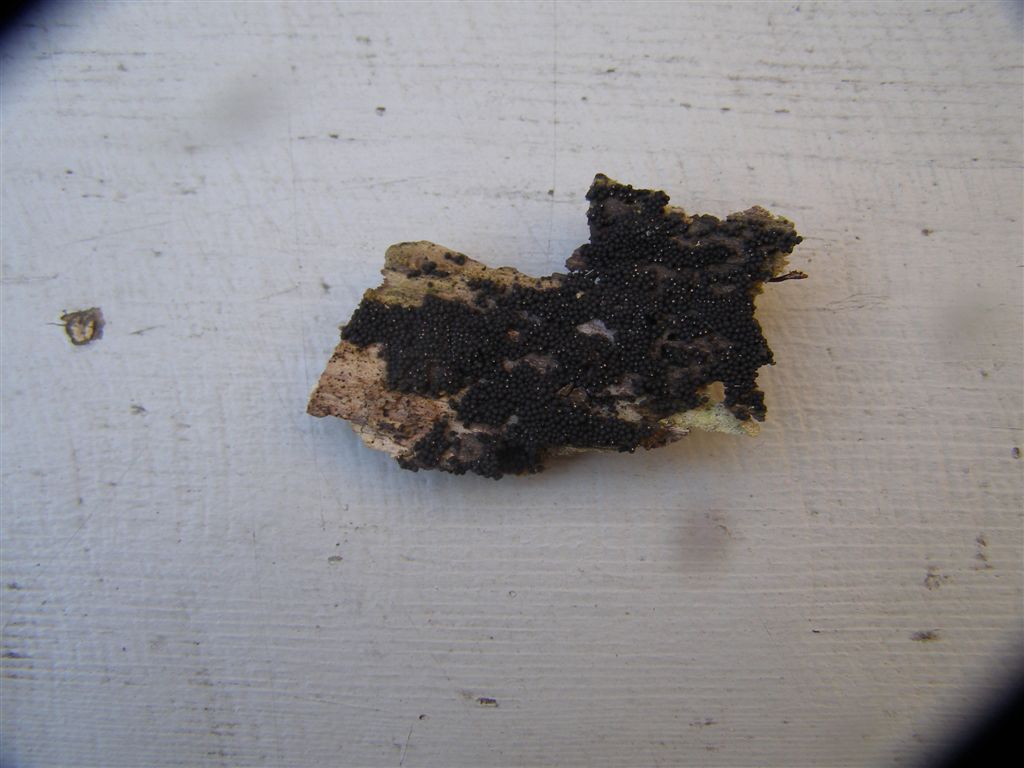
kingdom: Fungi
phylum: Ascomycota
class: Sordariomycetes
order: Sordariales
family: Helminthosphaeriaceae
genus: Ruzenia
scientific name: Ruzenia spermoides
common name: glat børstekerne
